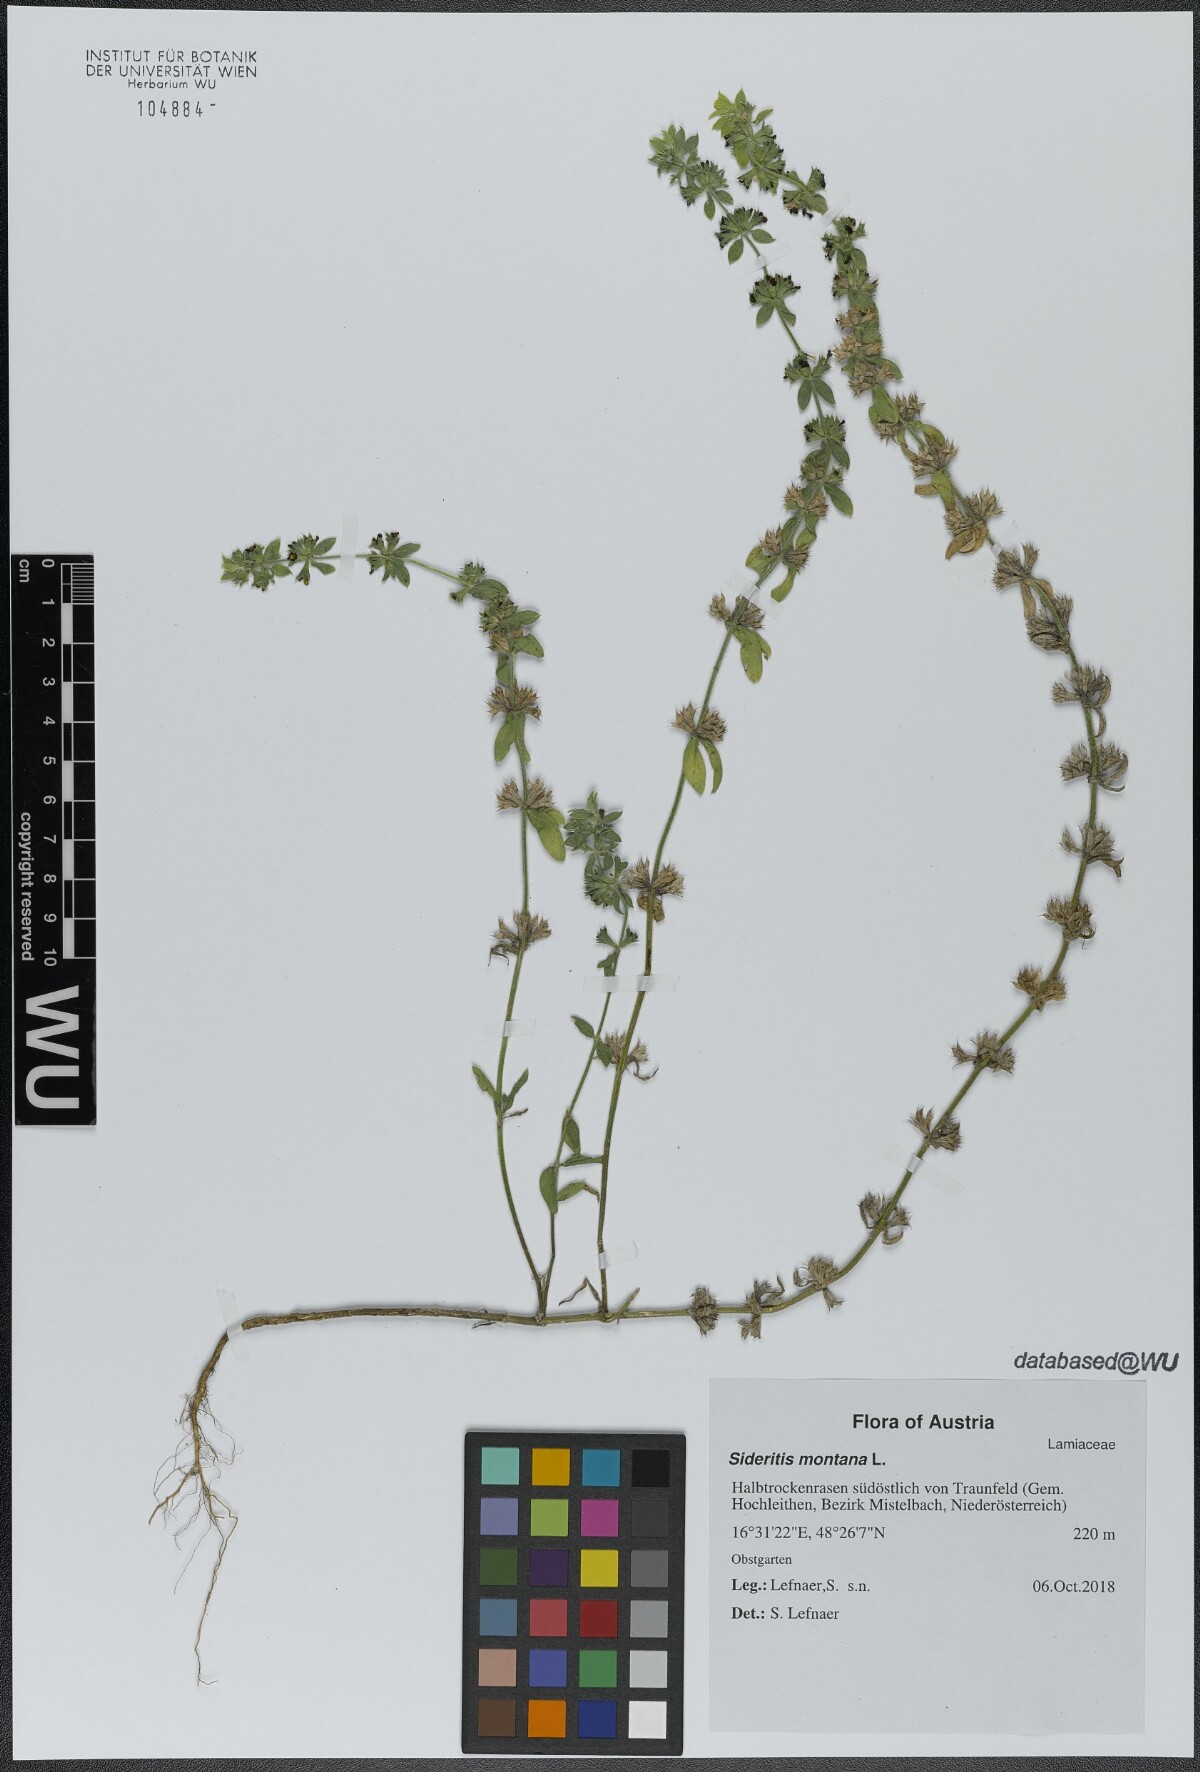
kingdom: Plantae
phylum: Tracheophyta
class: Magnoliopsida
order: Lamiales
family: Lamiaceae
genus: Sideritis
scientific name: Sideritis montana
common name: Mountain ironwort
